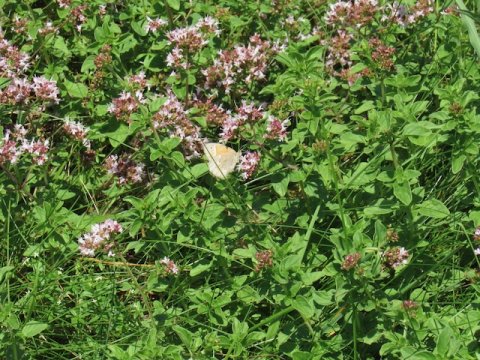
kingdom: Animalia
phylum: Arthropoda
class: Insecta
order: Lepidoptera
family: Nymphalidae
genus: Coenonympha
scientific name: Coenonympha tullia
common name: Large Heath
